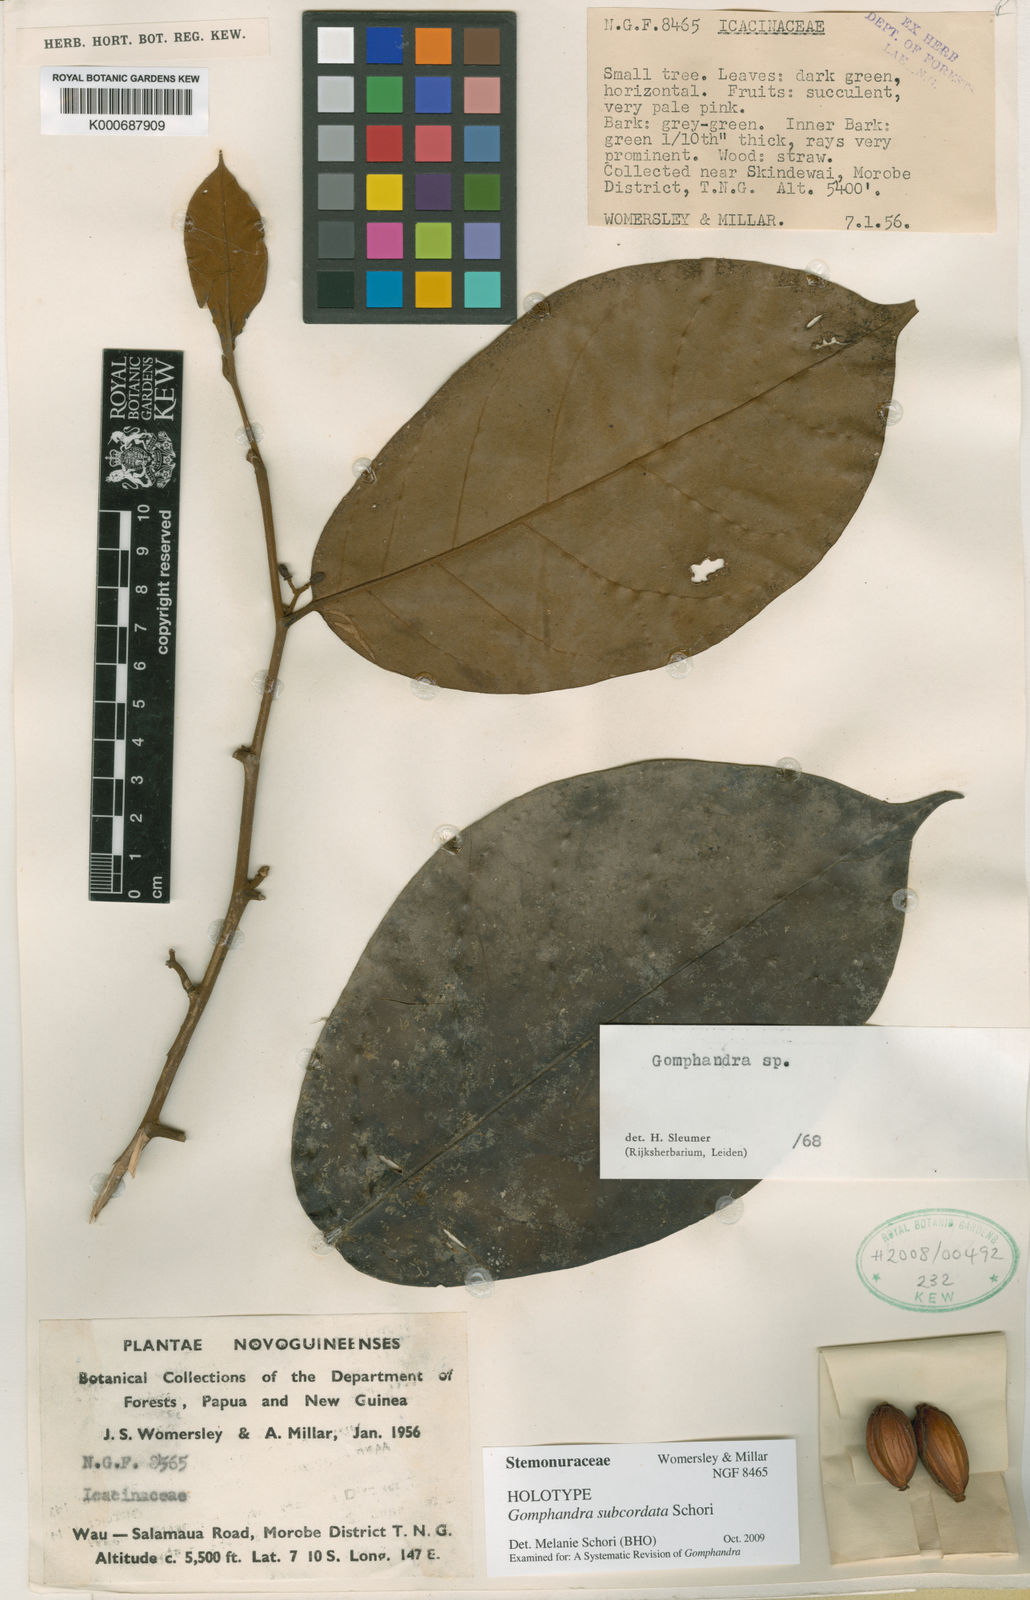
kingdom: Plantae
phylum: Tracheophyta
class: Magnoliopsida
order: Cardiopteridales
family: Stemonuraceae
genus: Gomphandra
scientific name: Gomphandra
